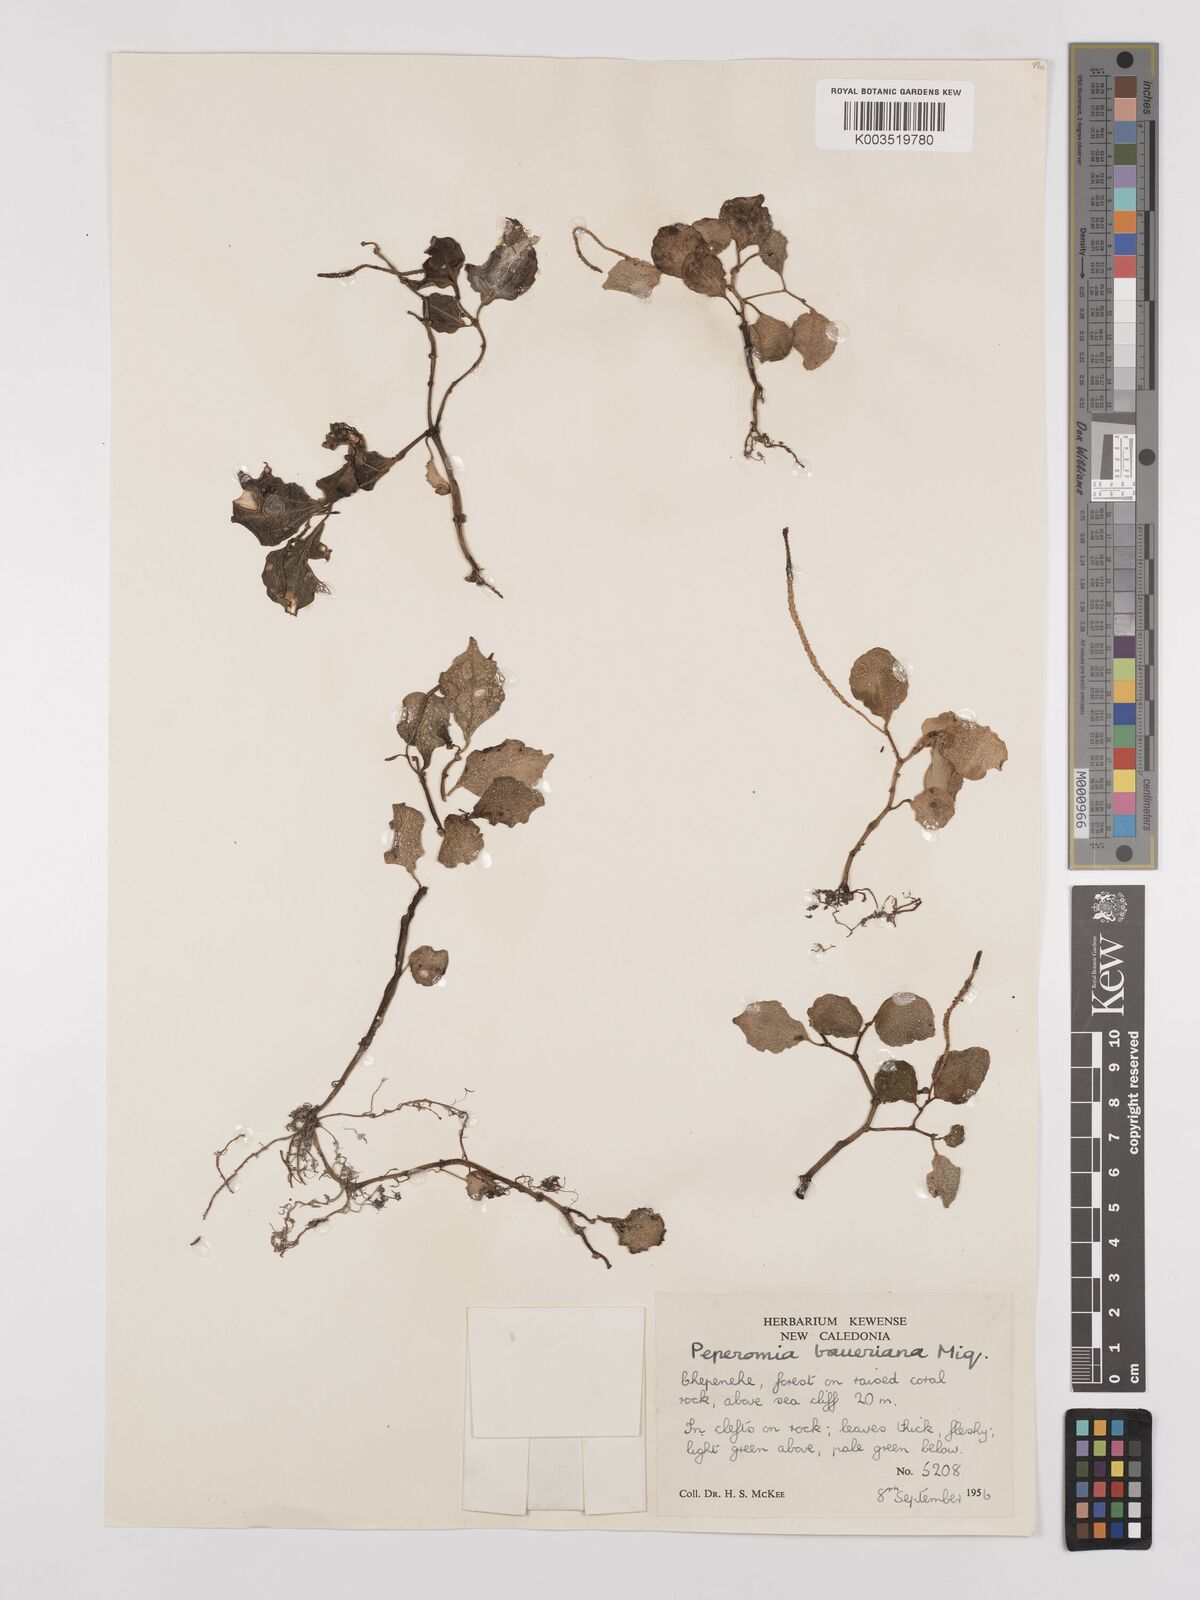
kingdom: Plantae
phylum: Tracheophyta
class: Magnoliopsida
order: Piperales
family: Piperaceae
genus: Peperomia
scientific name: Peperomia
